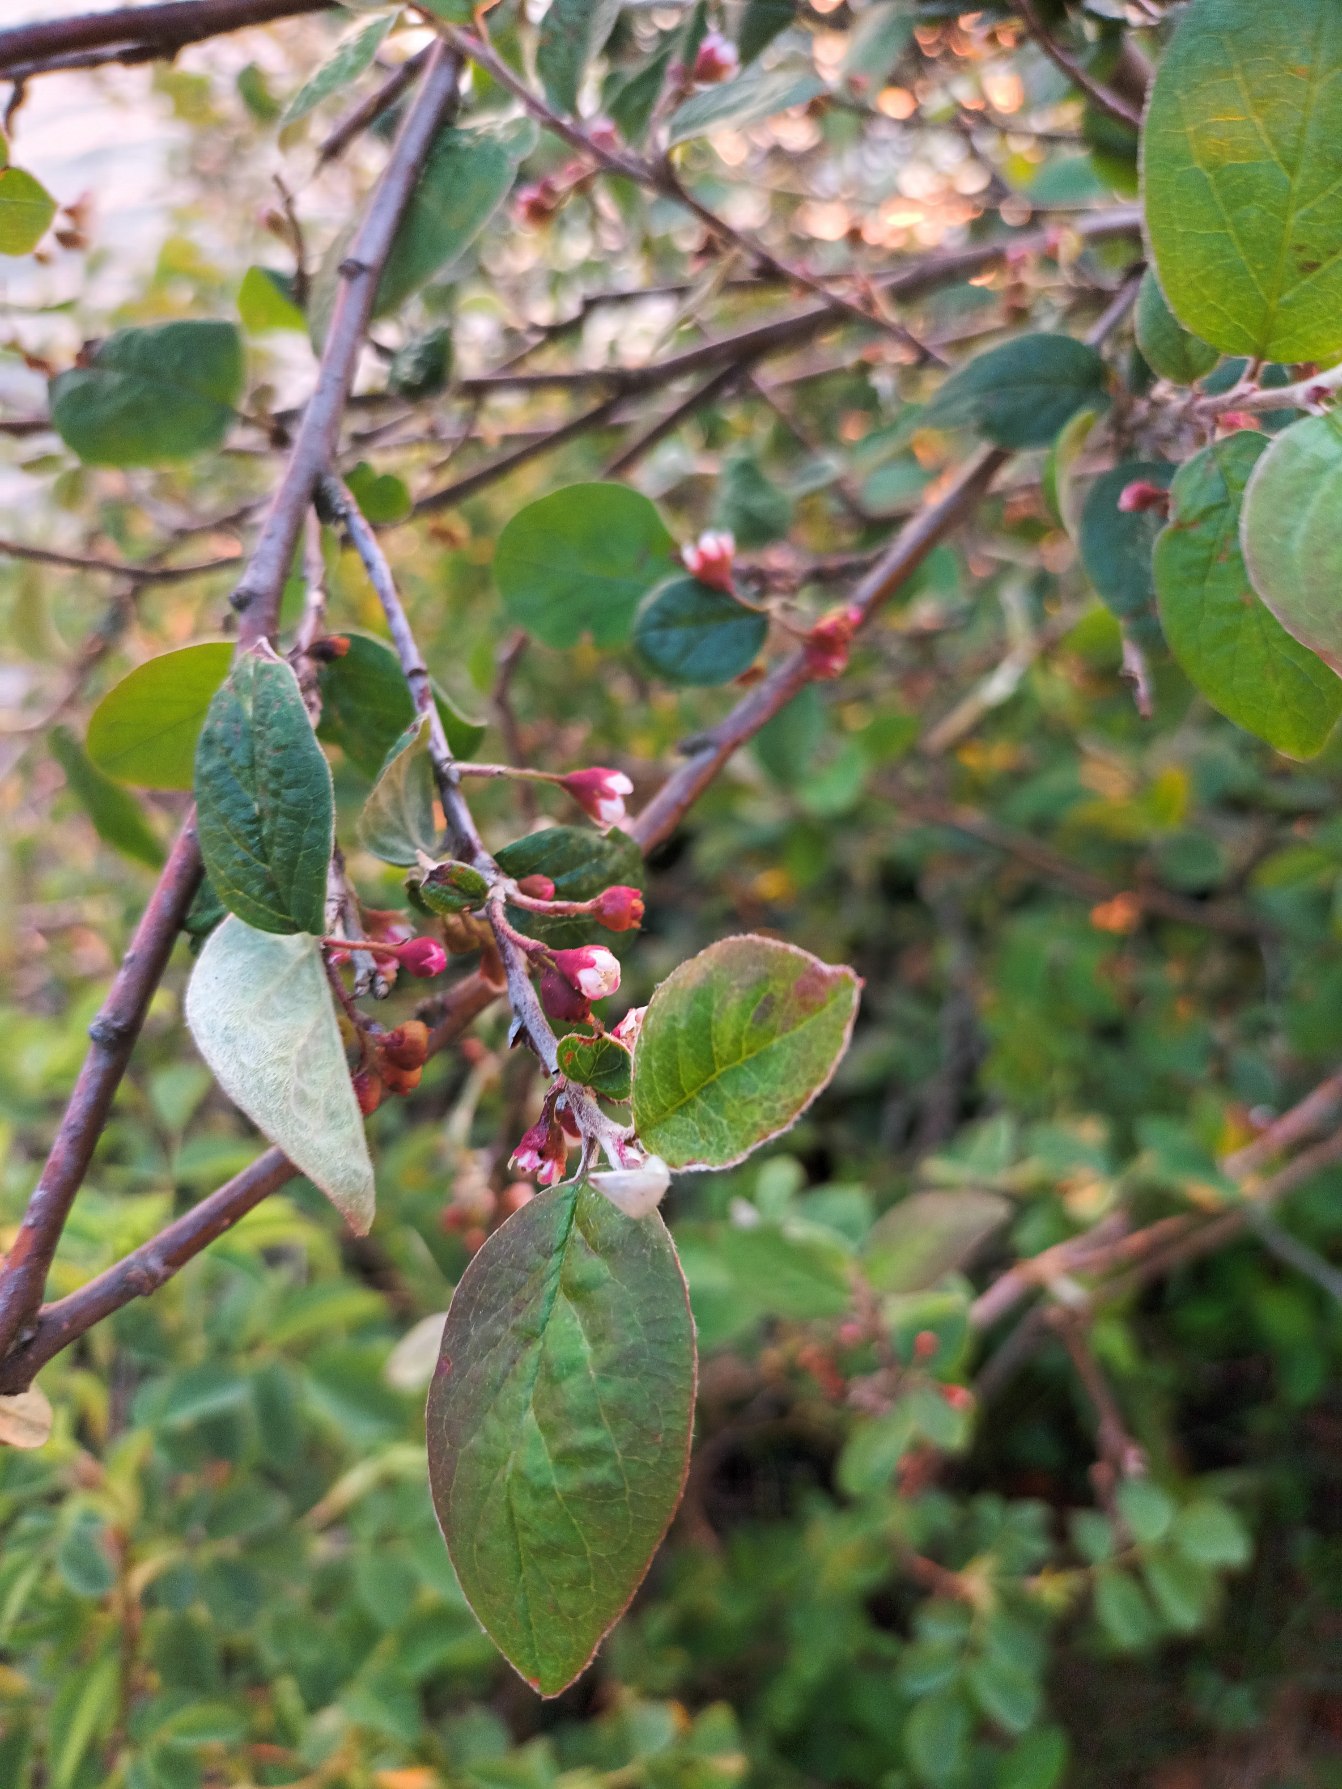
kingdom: Plantae
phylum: Tracheophyta
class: Magnoliopsida
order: Rosales
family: Rosaceae
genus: Cotoneaster
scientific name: Cotoneaster niger
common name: Sort dværgmispel
